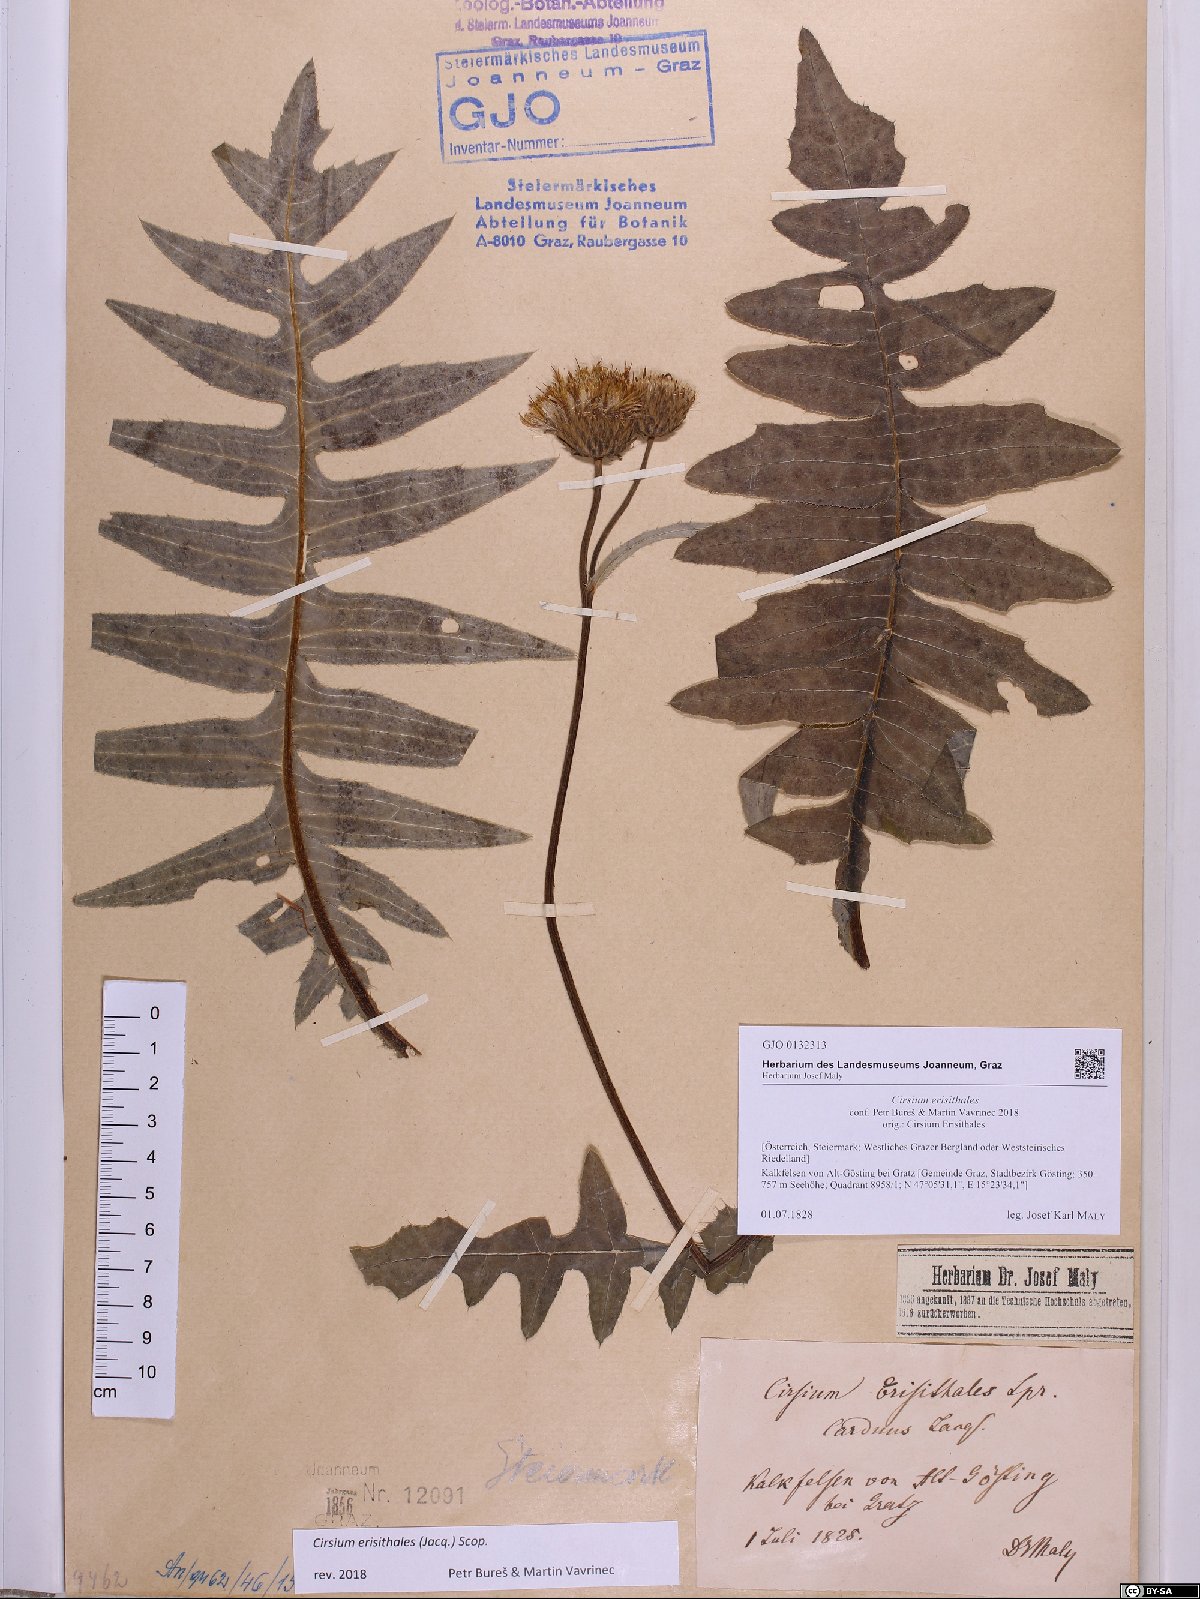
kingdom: Plantae
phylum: Tracheophyta
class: Magnoliopsida
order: Asterales
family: Asteraceae
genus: Cirsium
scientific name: Cirsium erisithales
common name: Yellow thistle
